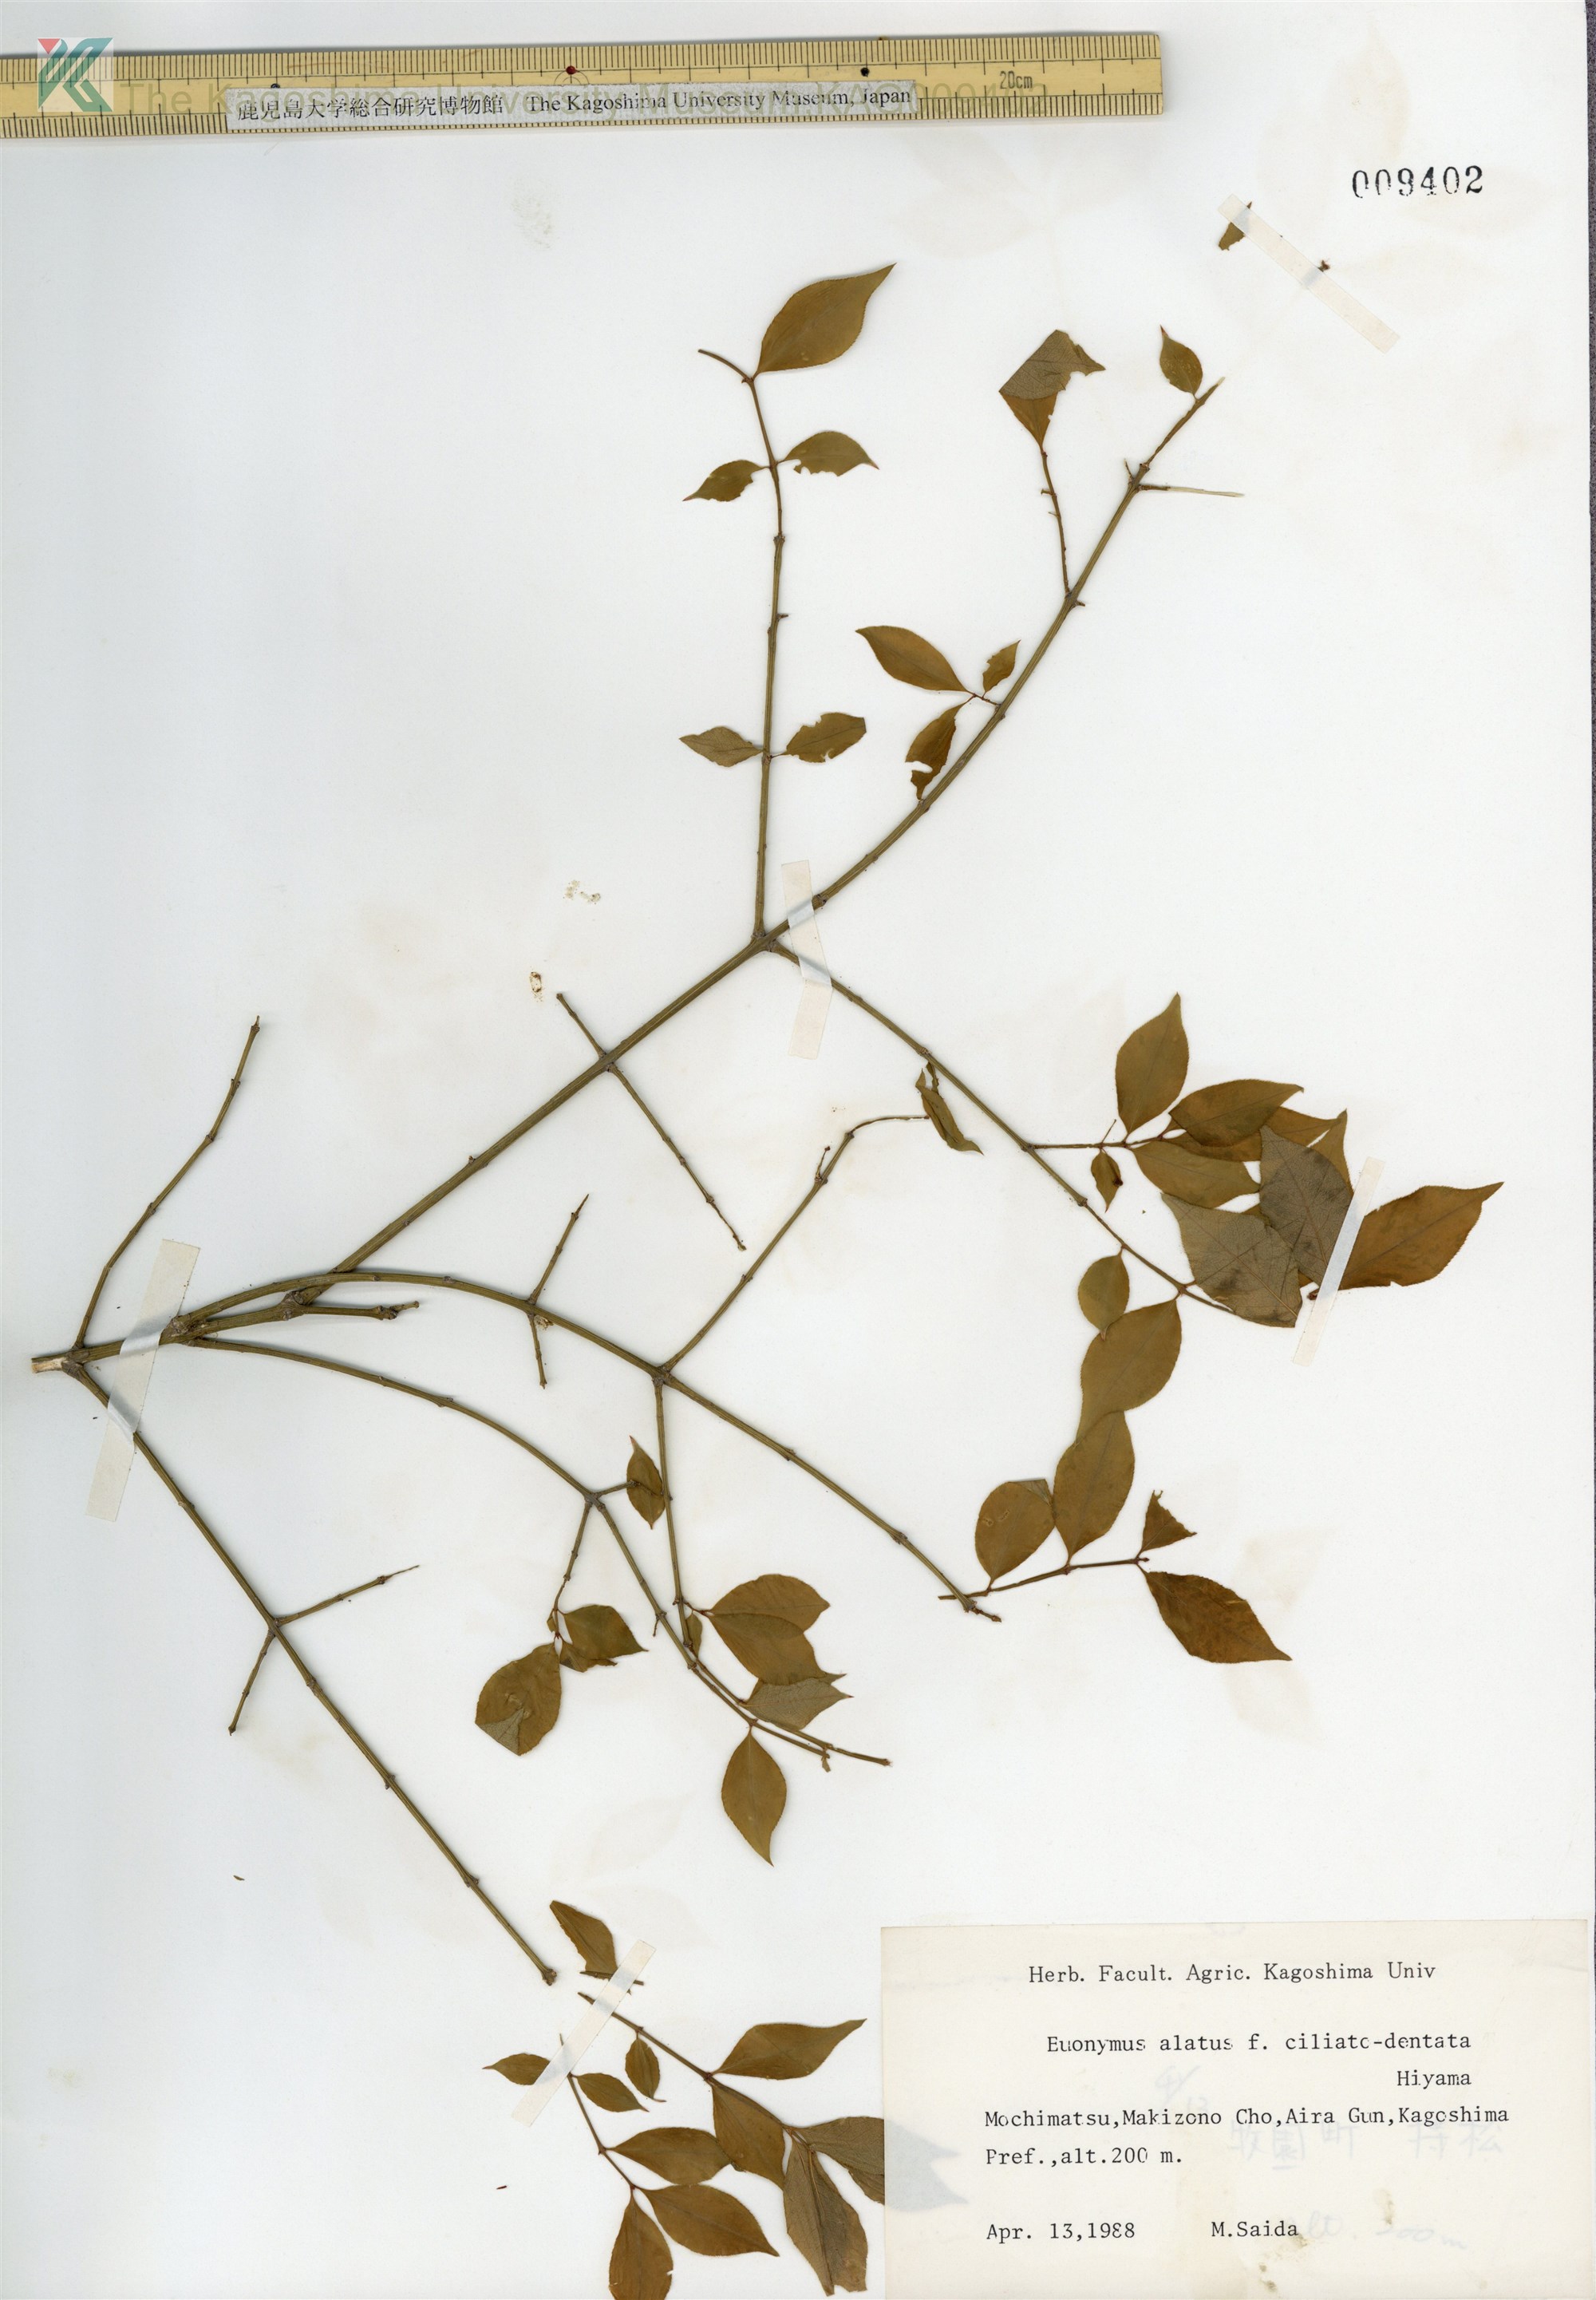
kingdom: Plantae
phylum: Tracheophyta
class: Magnoliopsida
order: Celastrales
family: Celastraceae
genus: Euonymus
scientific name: Euonymus alatus
